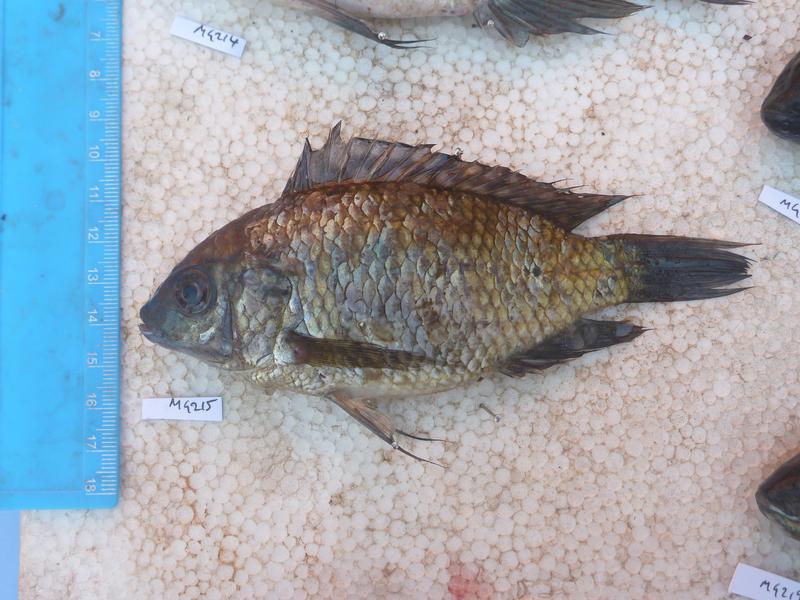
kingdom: Animalia
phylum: Chordata
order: Perciformes
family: Cichlidae
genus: Oreochromis
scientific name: Oreochromis leucostictus
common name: Blue spotted tilapia
